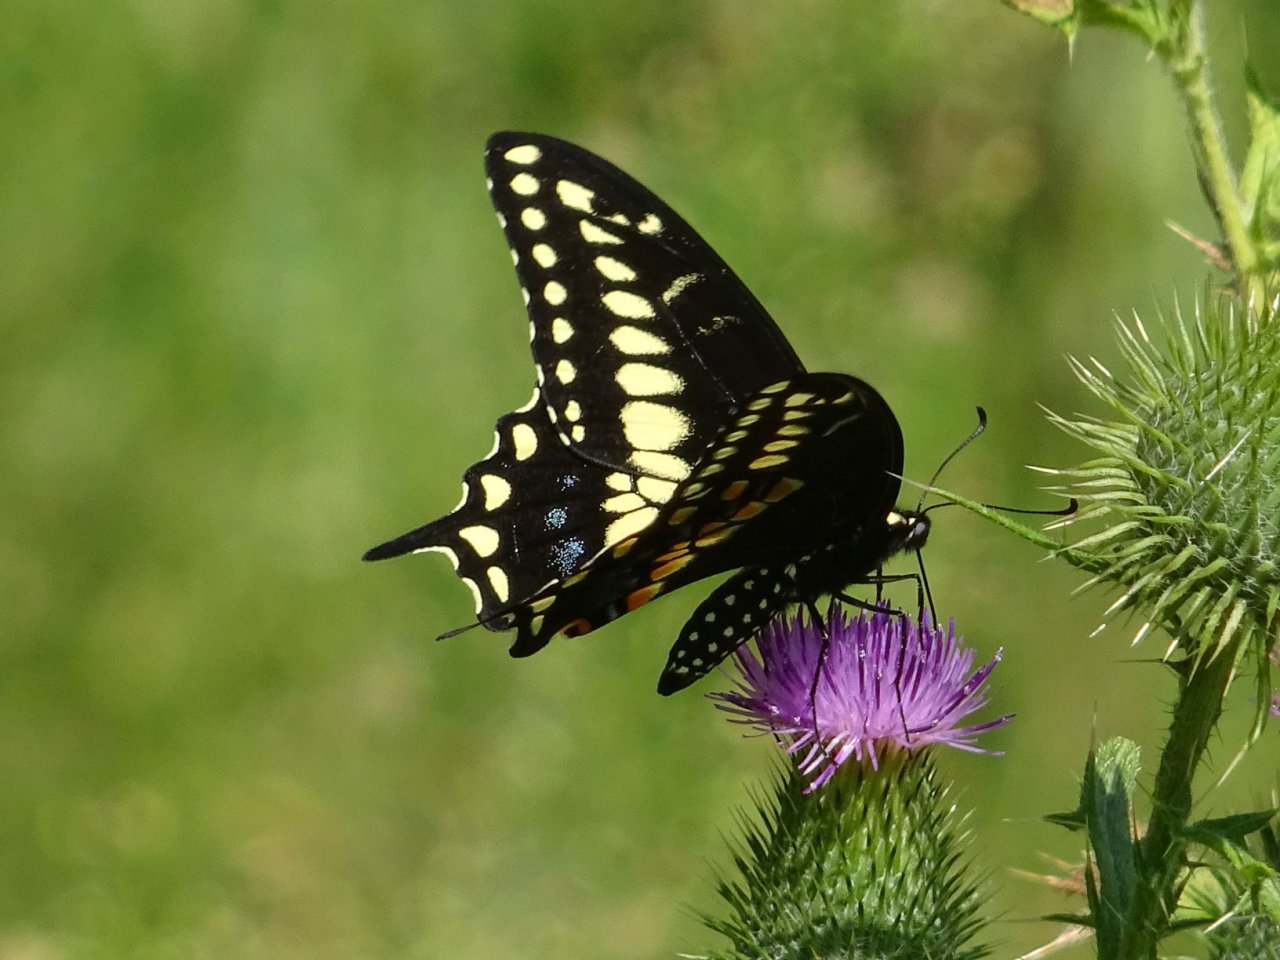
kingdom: Animalia
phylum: Arthropoda
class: Insecta
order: Lepidoptera
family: Papilionidae
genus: Papilio
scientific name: Papilio polyxenes
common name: Black Swallowtail
